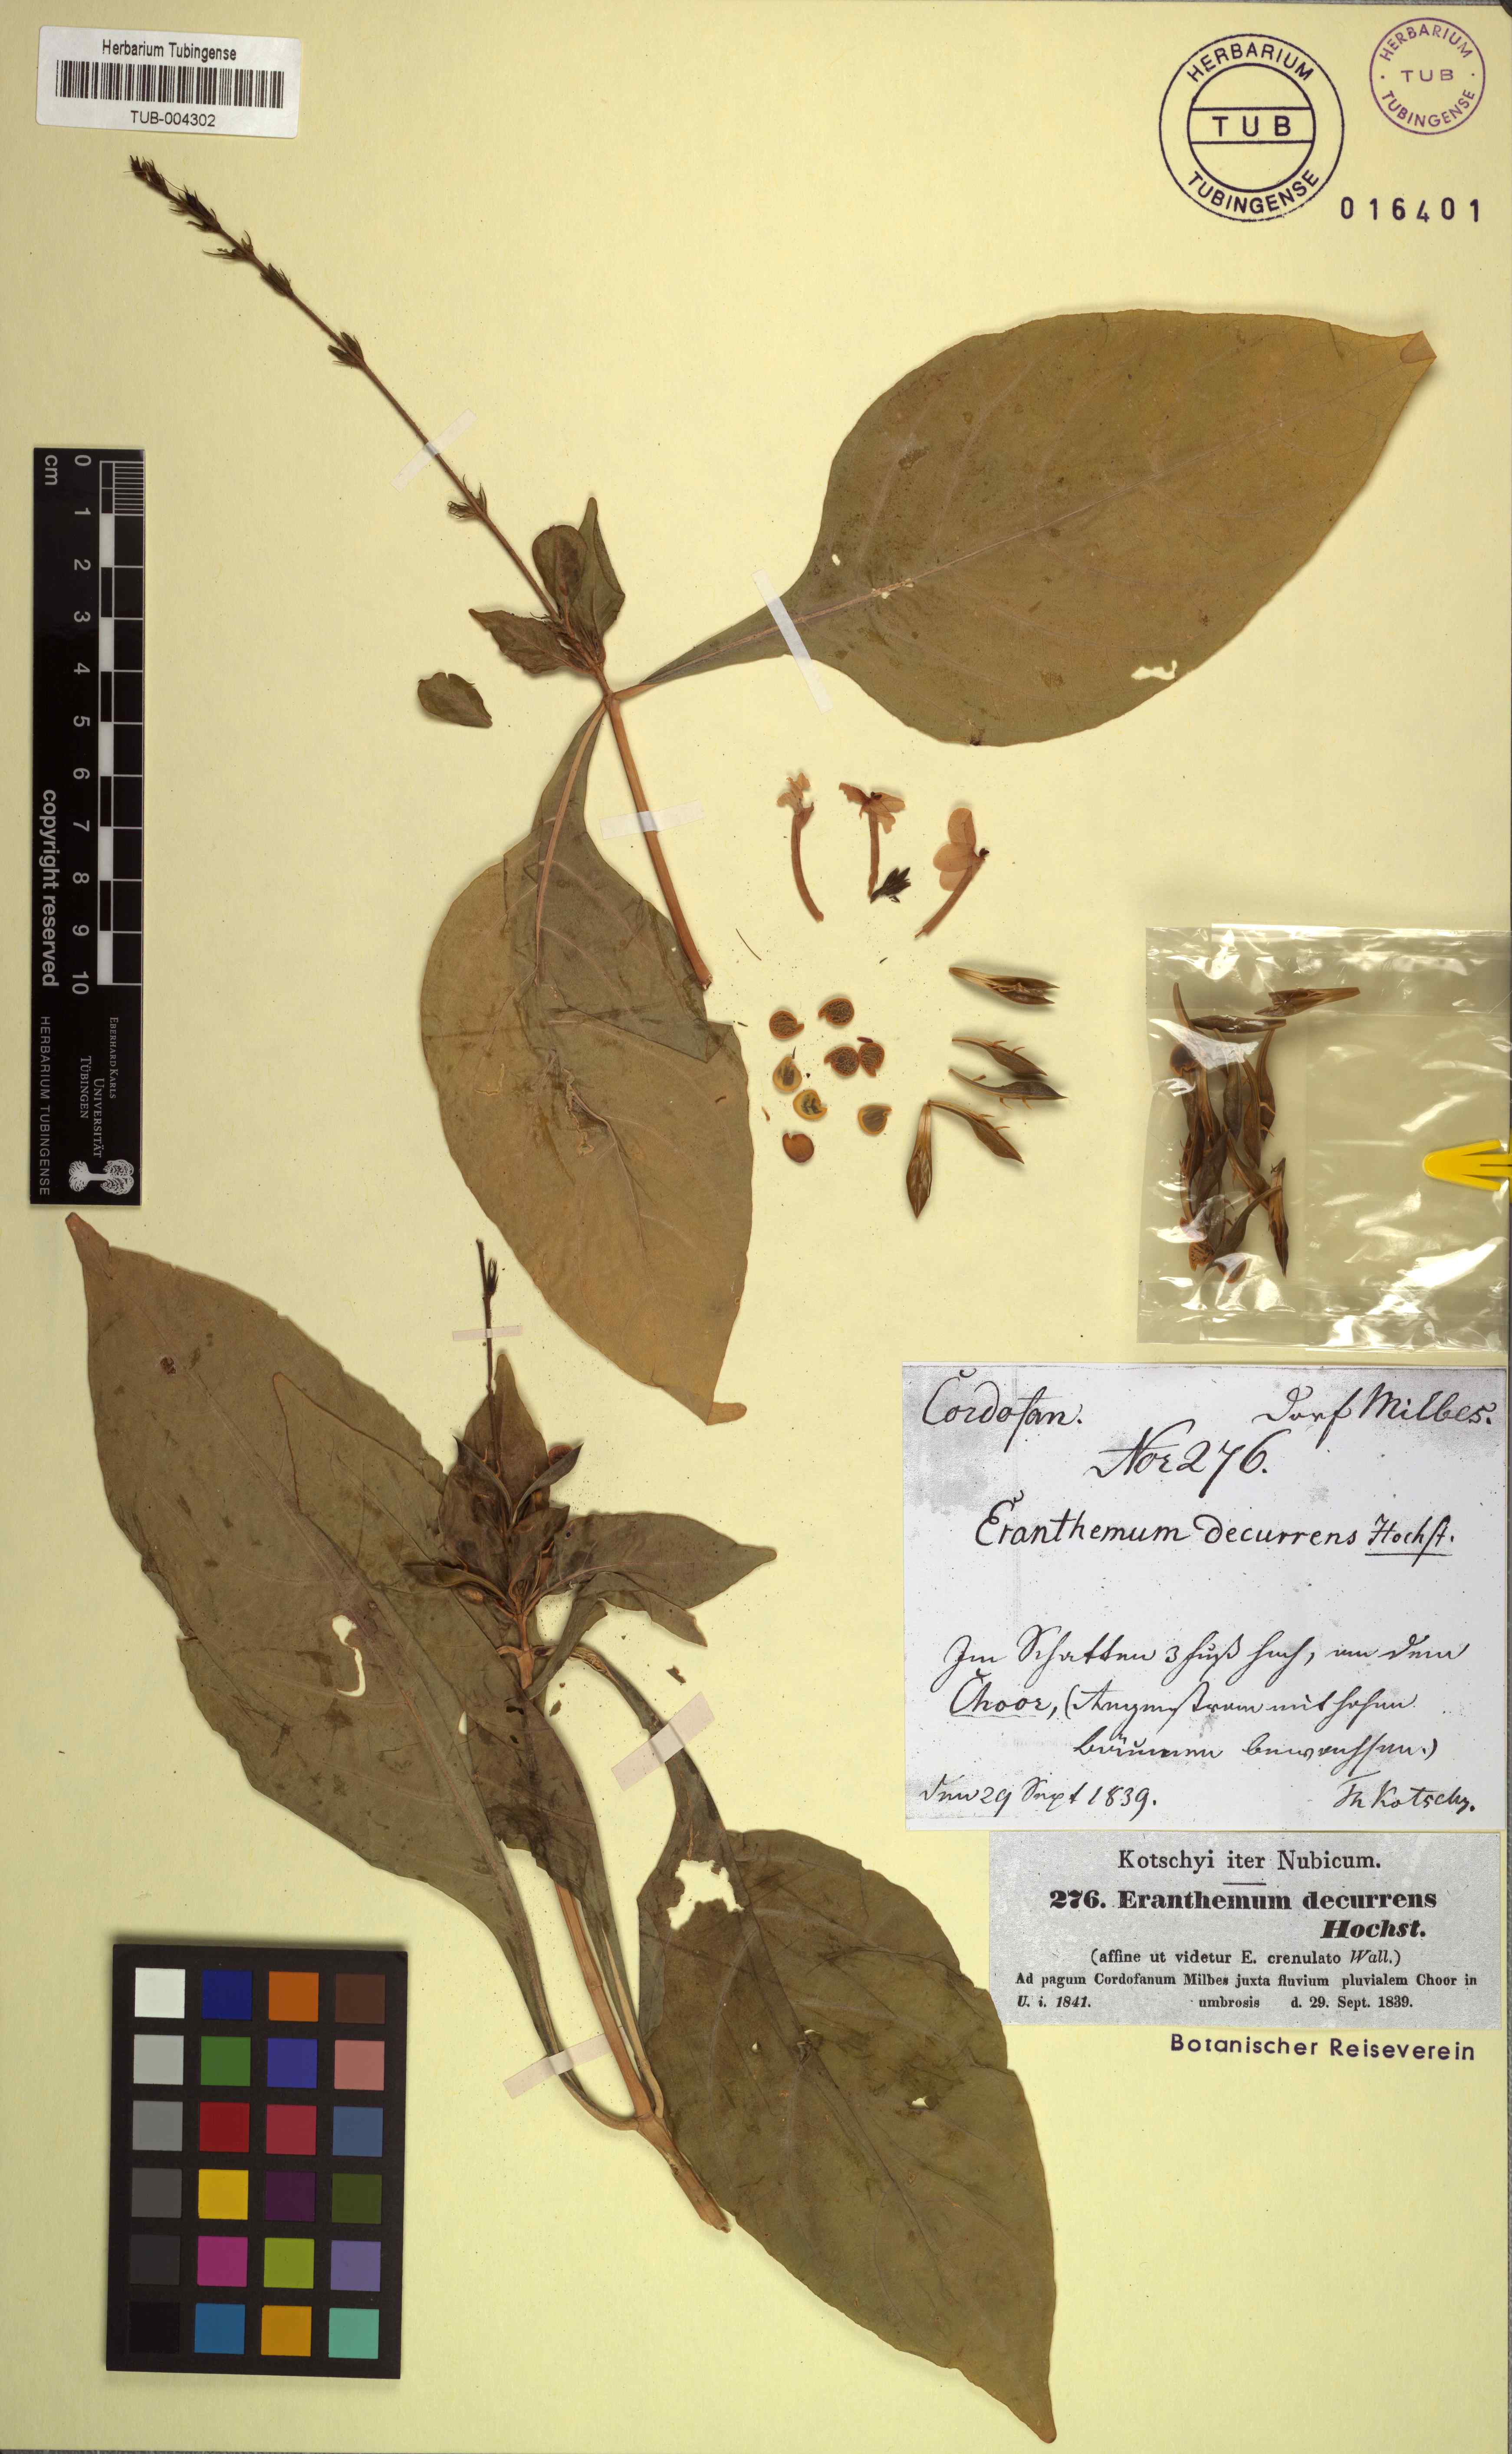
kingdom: Plantae
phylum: Tracheophyta
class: Magnoliopsida
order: Lamiales
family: Acanthaceae
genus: Ruspolia
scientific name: Ruspolia decurrens
